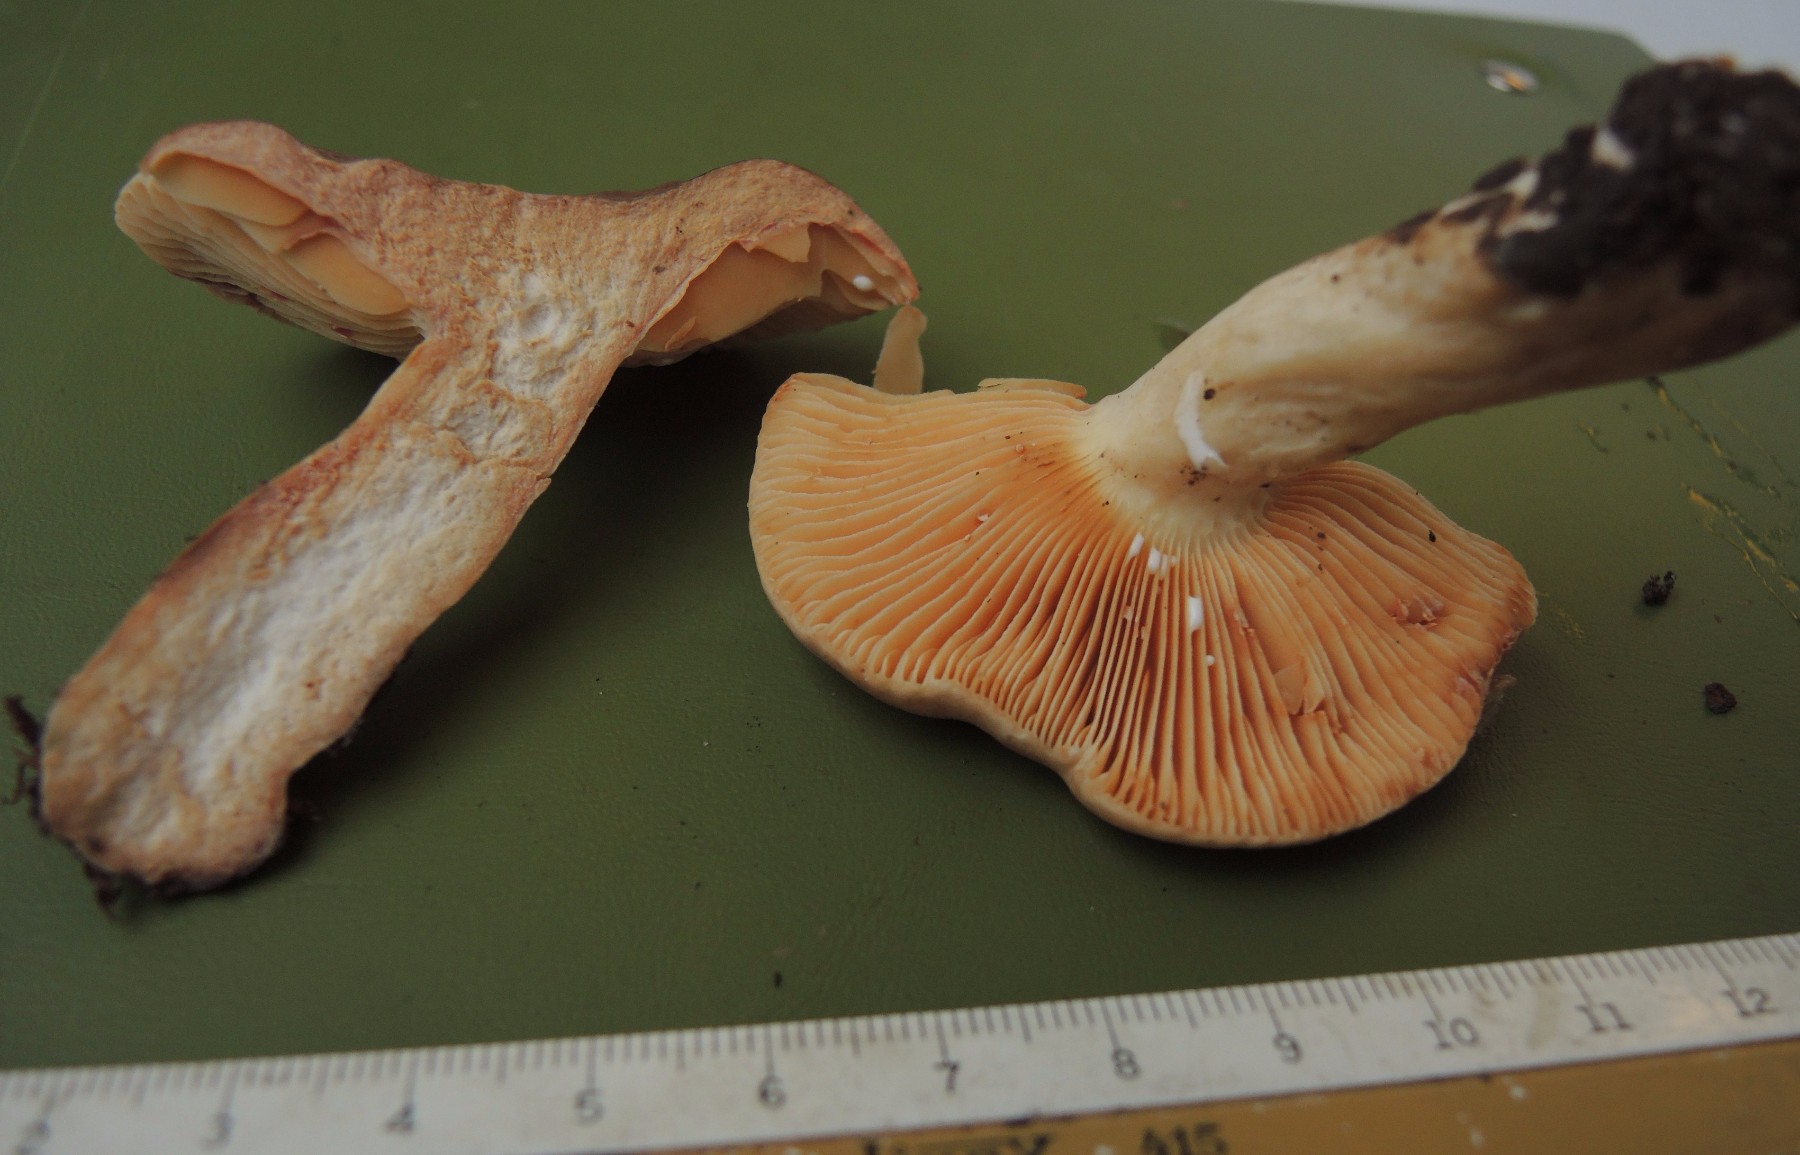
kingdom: Fungi
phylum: Basidiomycota
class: Agaricomycetes
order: Russulales
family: Russulaceae
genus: Lactarius
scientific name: Lactarius ruginosus
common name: gråbrun mælkehat
